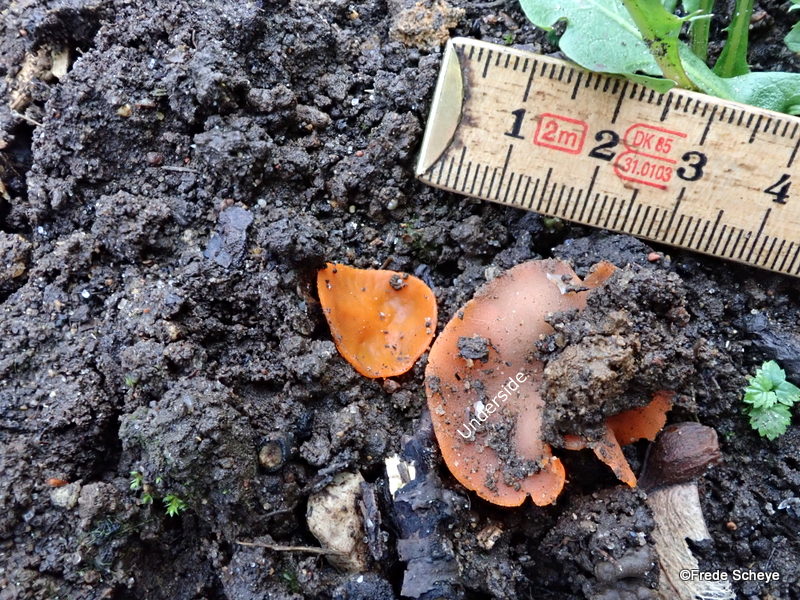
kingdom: Fungi
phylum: Ascomycota
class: Pezizomycetes
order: Pezizales
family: Pyronemataceae
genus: Aleuria
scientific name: Aleuria aurantia
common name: almindelig orangebæger
